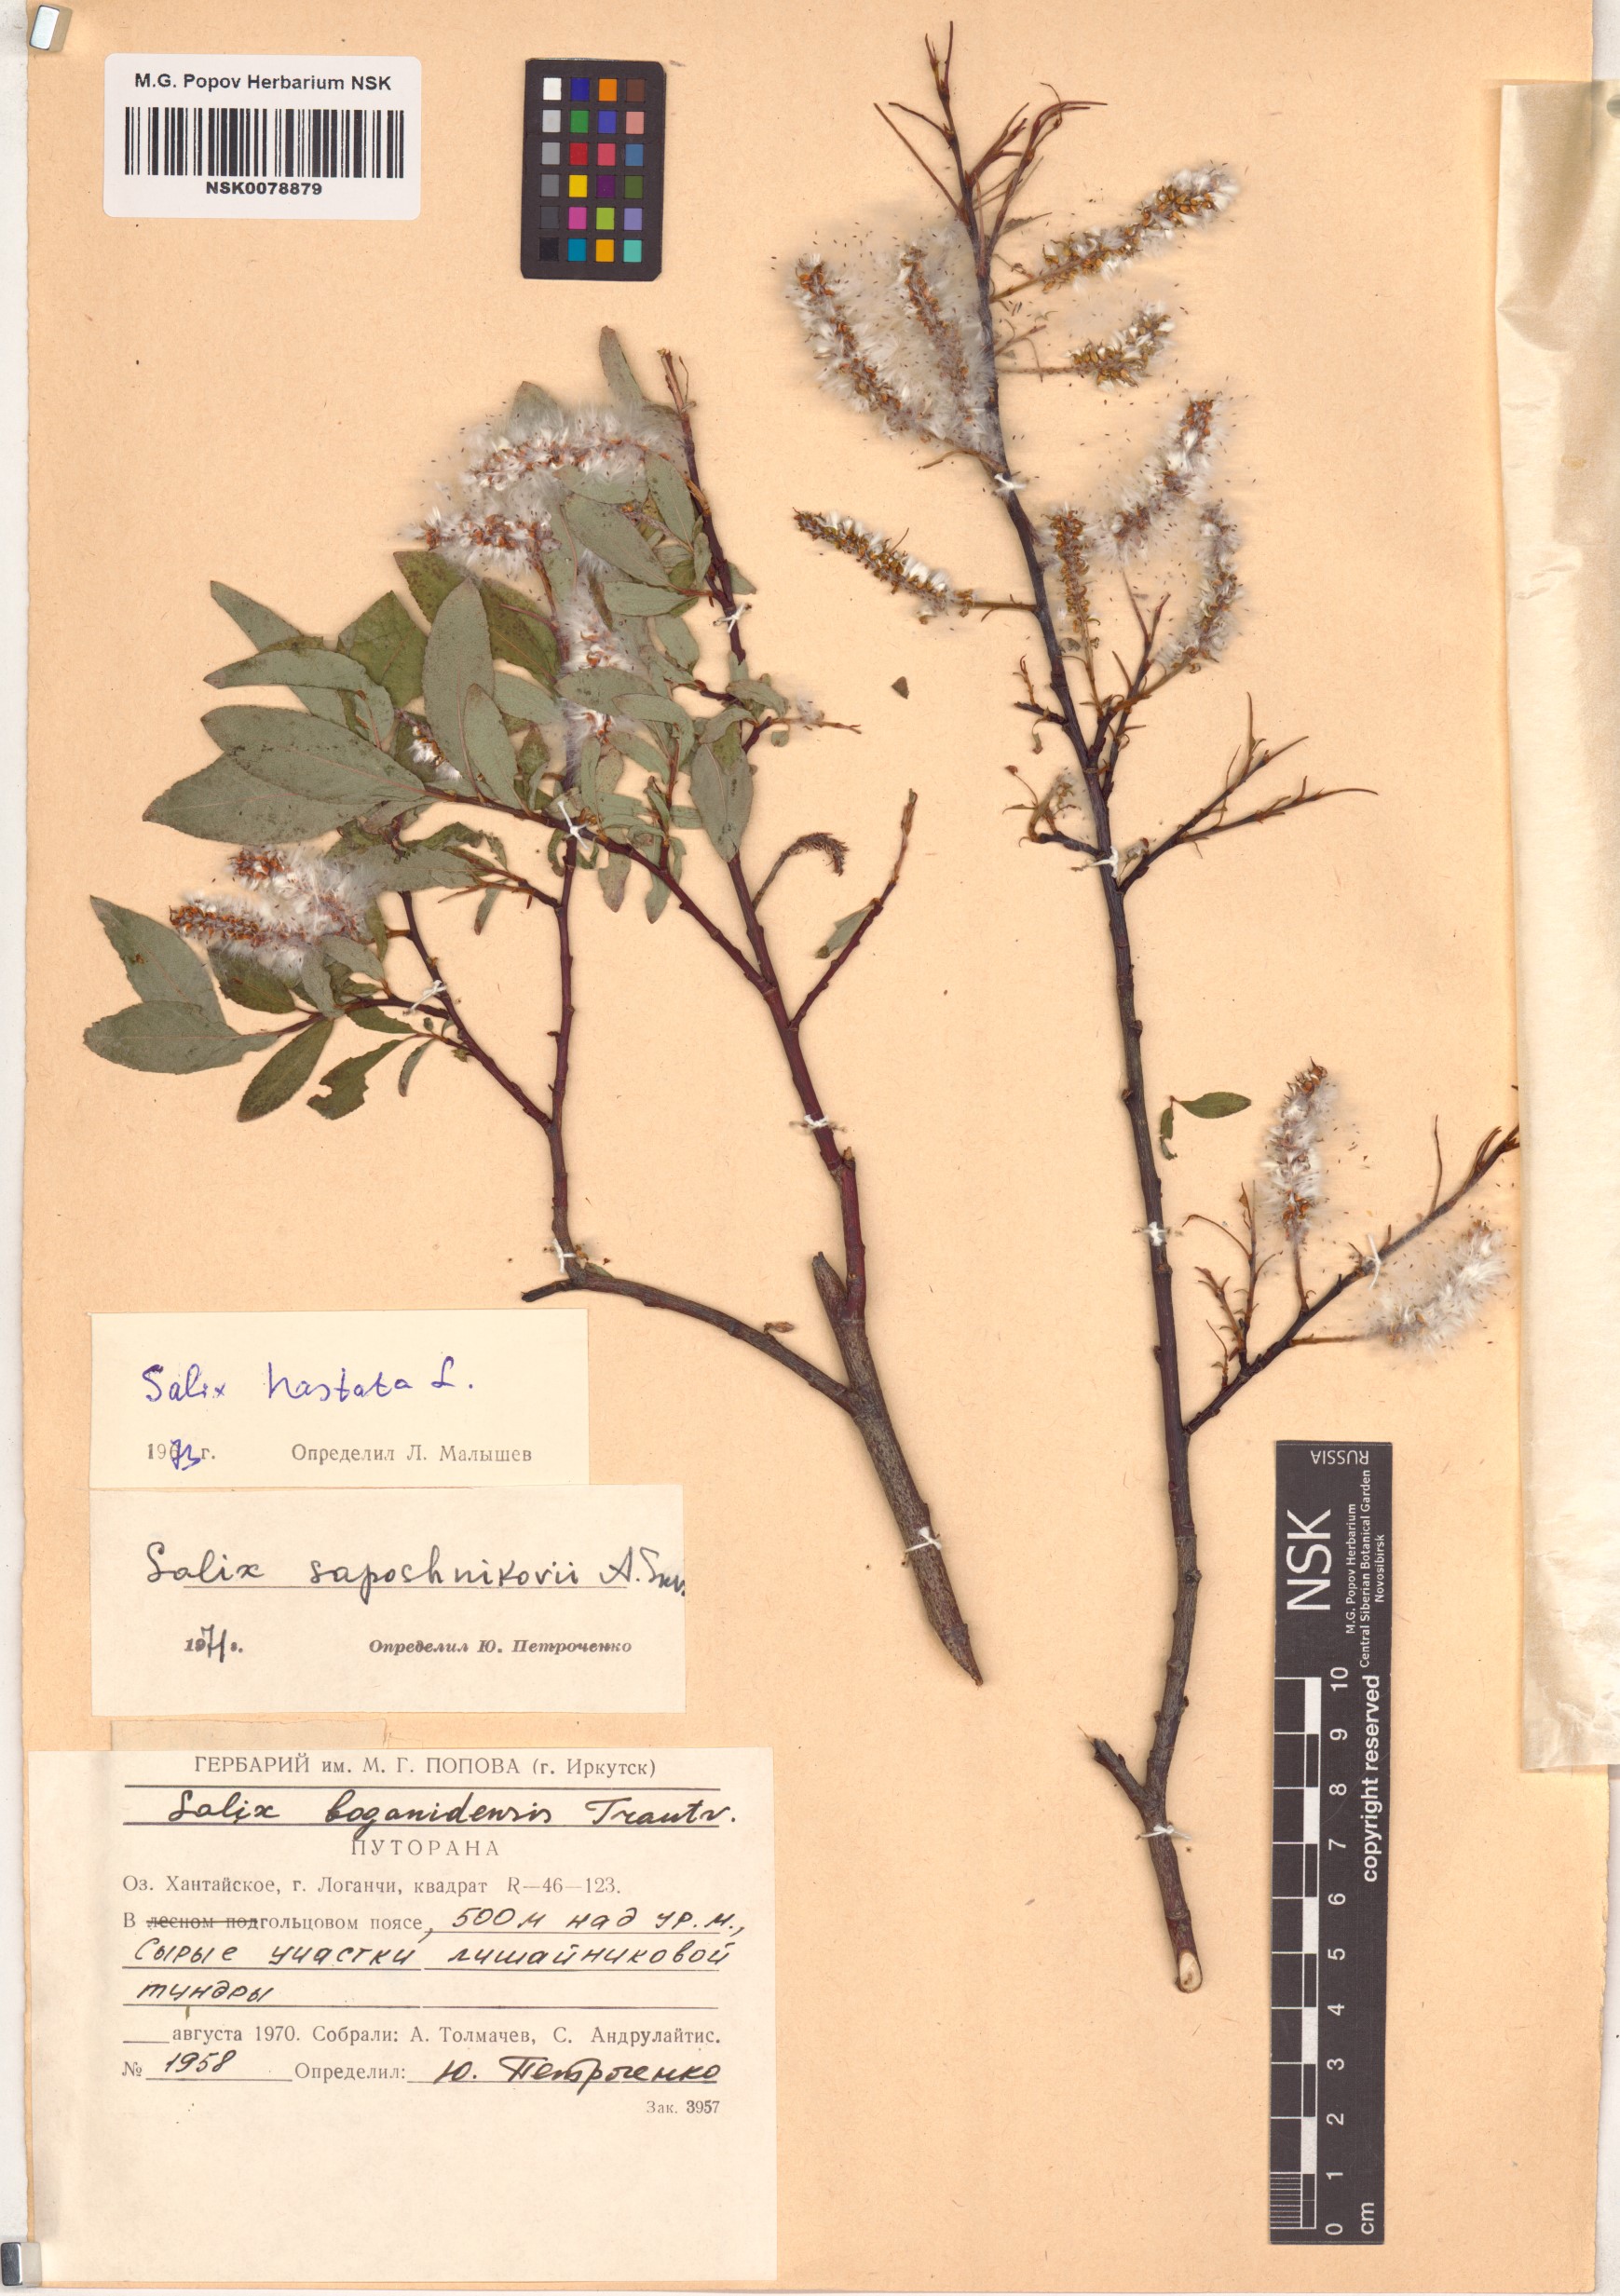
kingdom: Plantae
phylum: Tracheophyta
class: Magnoliopsida
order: Malpighiales
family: Salicaceae
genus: Salix
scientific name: Salix hastata
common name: Halberd willow
